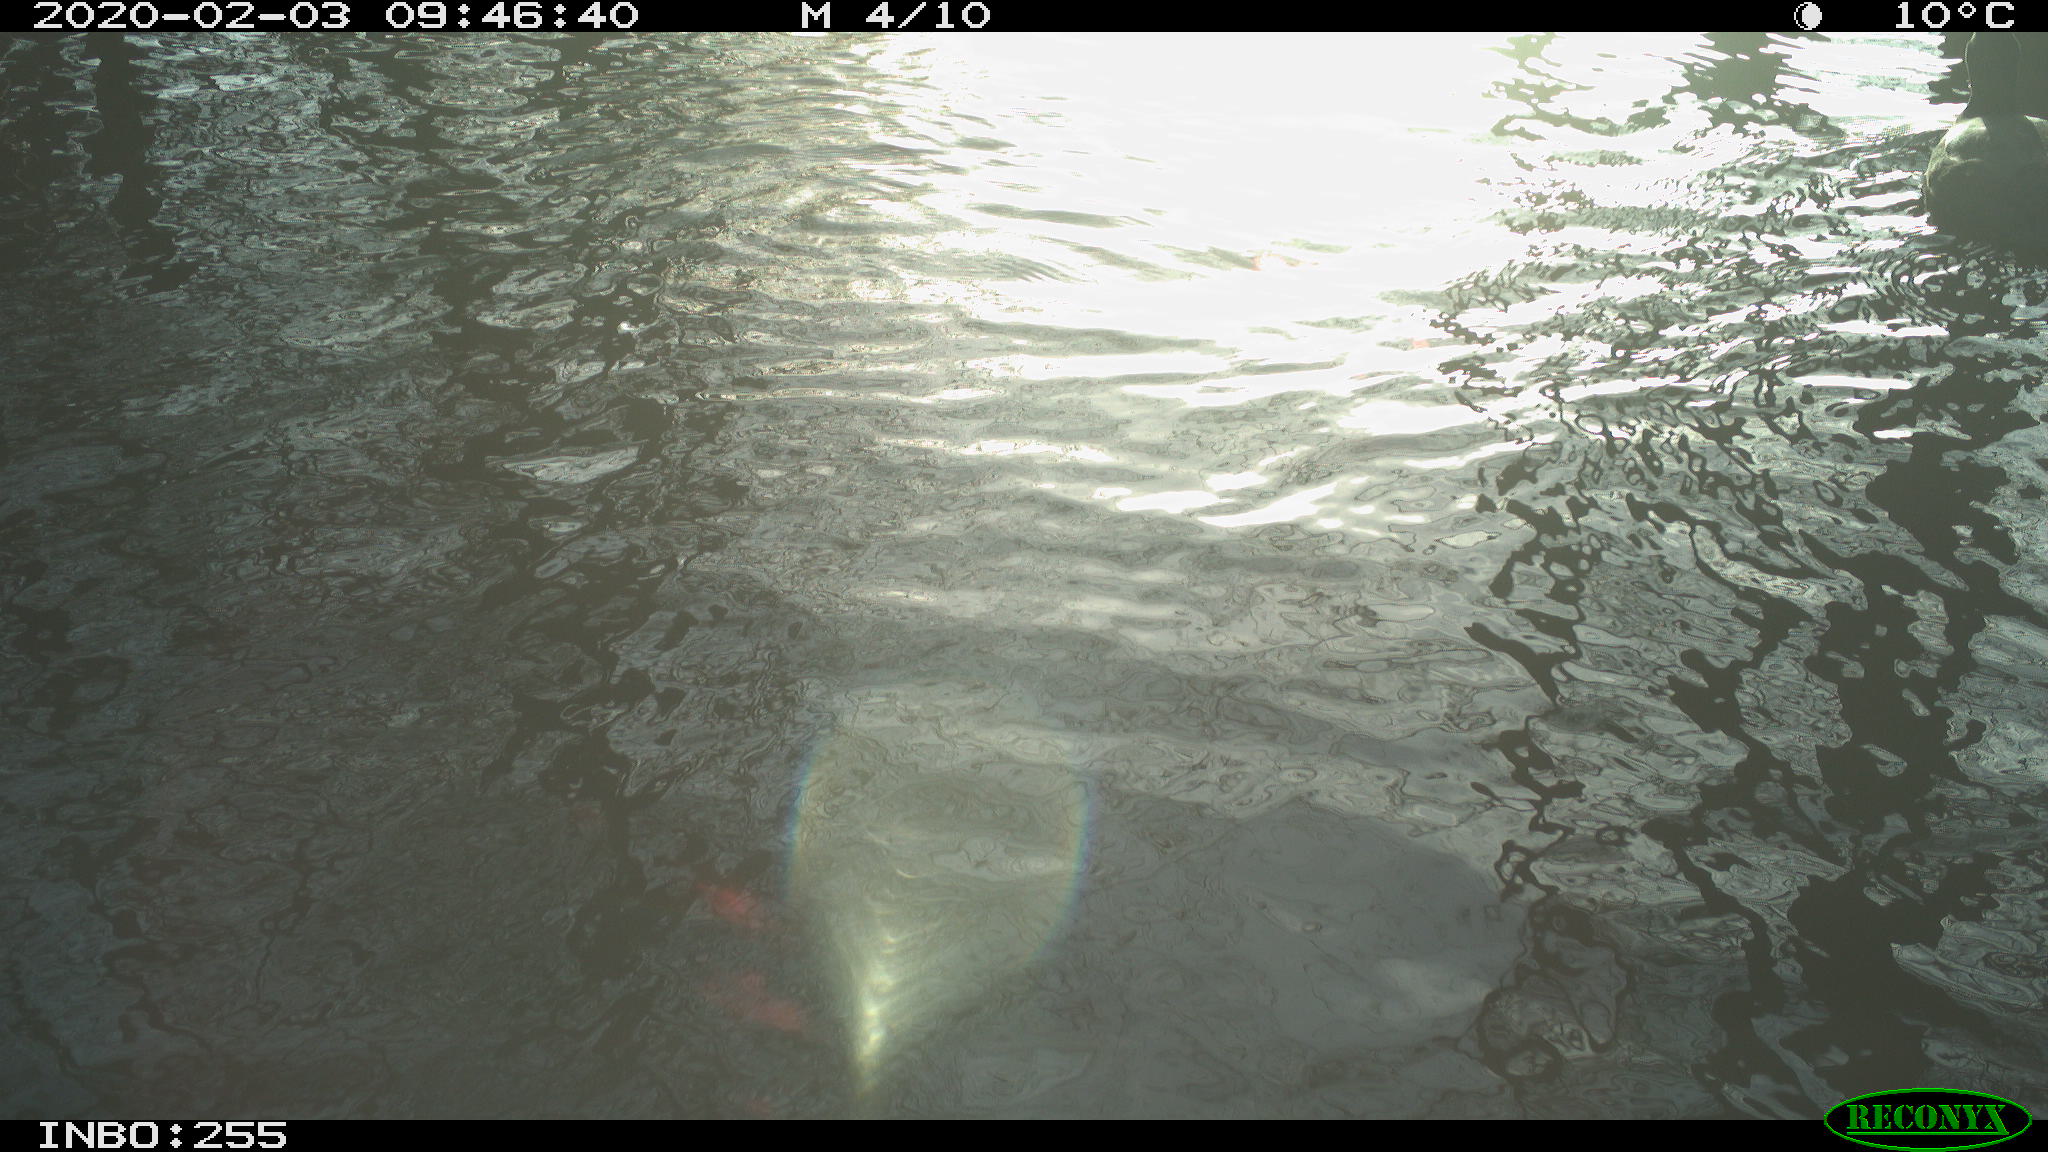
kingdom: Animalia
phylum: Chordata
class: Aves
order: Gruiformes
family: Rallidae
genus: Fulica
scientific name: Fulica atra
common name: Eurasian coot
